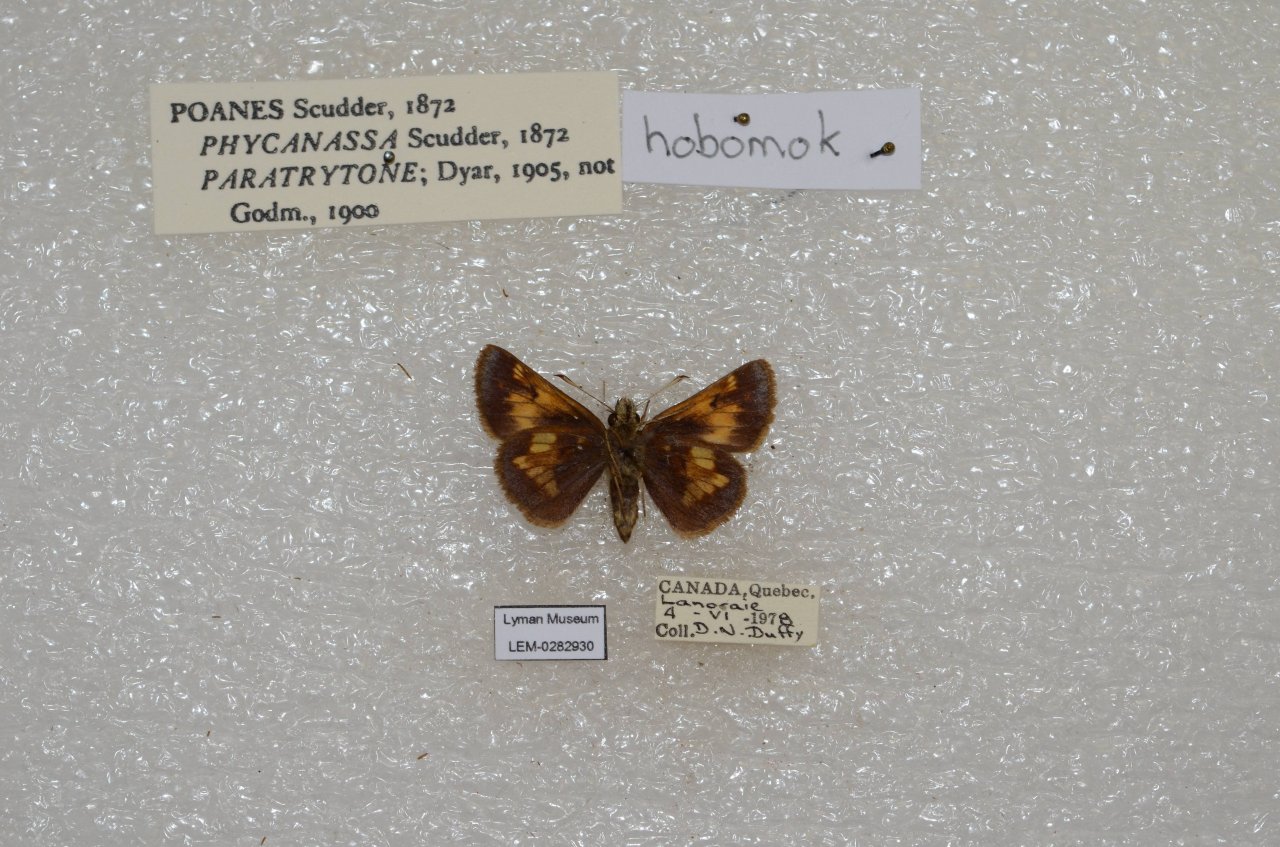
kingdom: Animalia
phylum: Arthropoda
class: Insecta
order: Lepidoptera
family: Hesperiidae
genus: Lon
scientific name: Lon hobomok
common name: Hobomok Skipper
